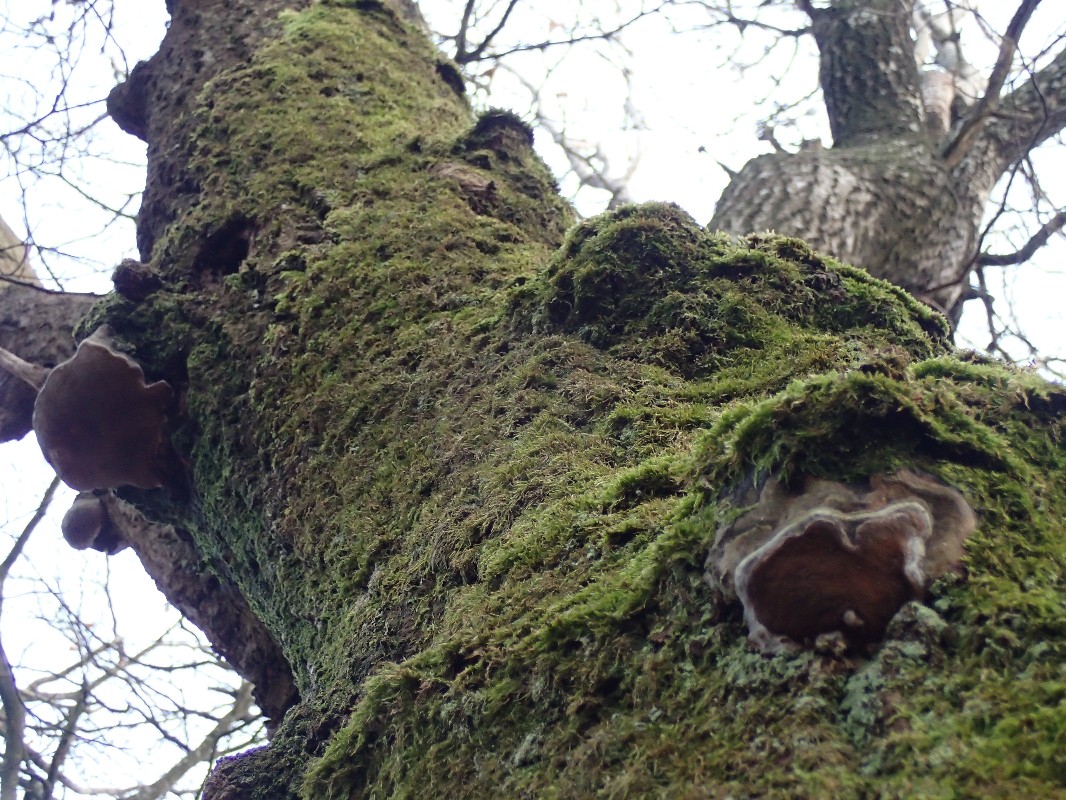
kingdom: Fungi
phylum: Basidiomycota
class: Agaricomycetes
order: Hymenochaetales
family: Hymenochaetaceae
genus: Phellinus
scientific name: Phellinus tremulae
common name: aspe-ildporesvamp
